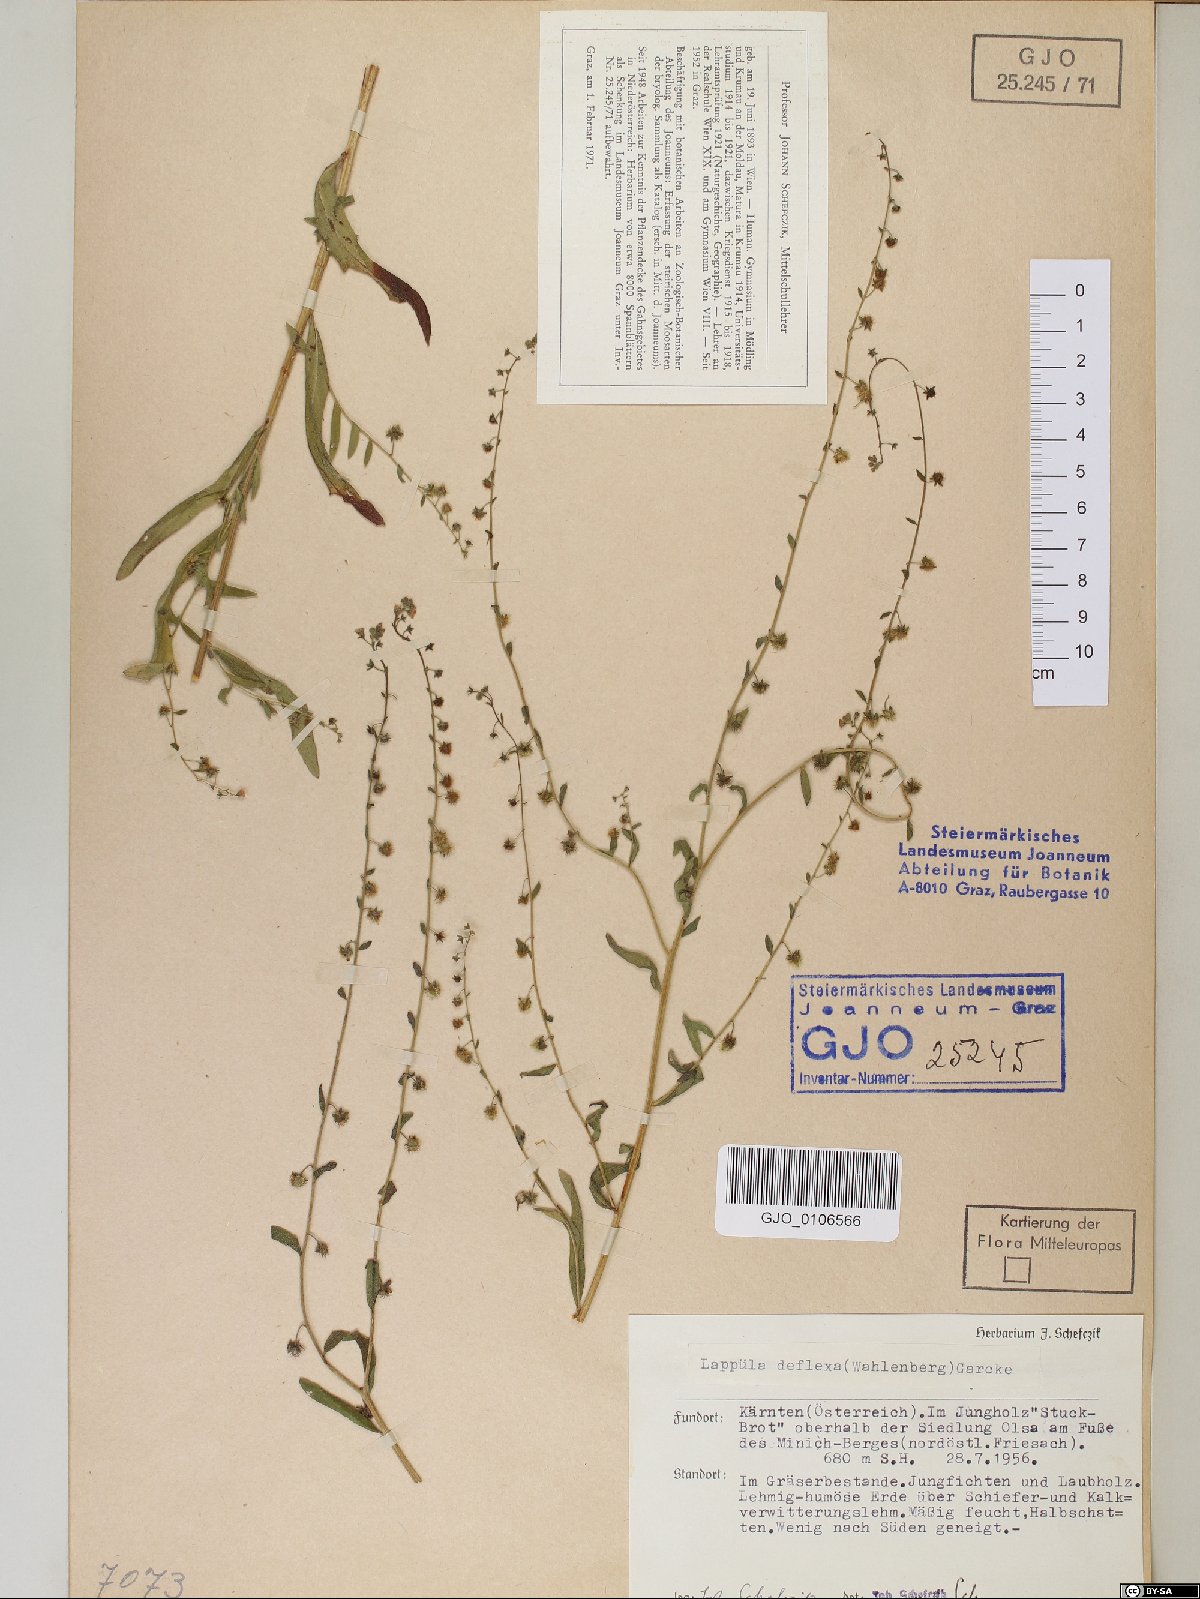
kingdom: Plantae
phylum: Tracheophyta
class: Magnoliopsida
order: Boraginales
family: Boraginaceae
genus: Hackelia
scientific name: Hackelia deflexa
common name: Nodding stickseed
